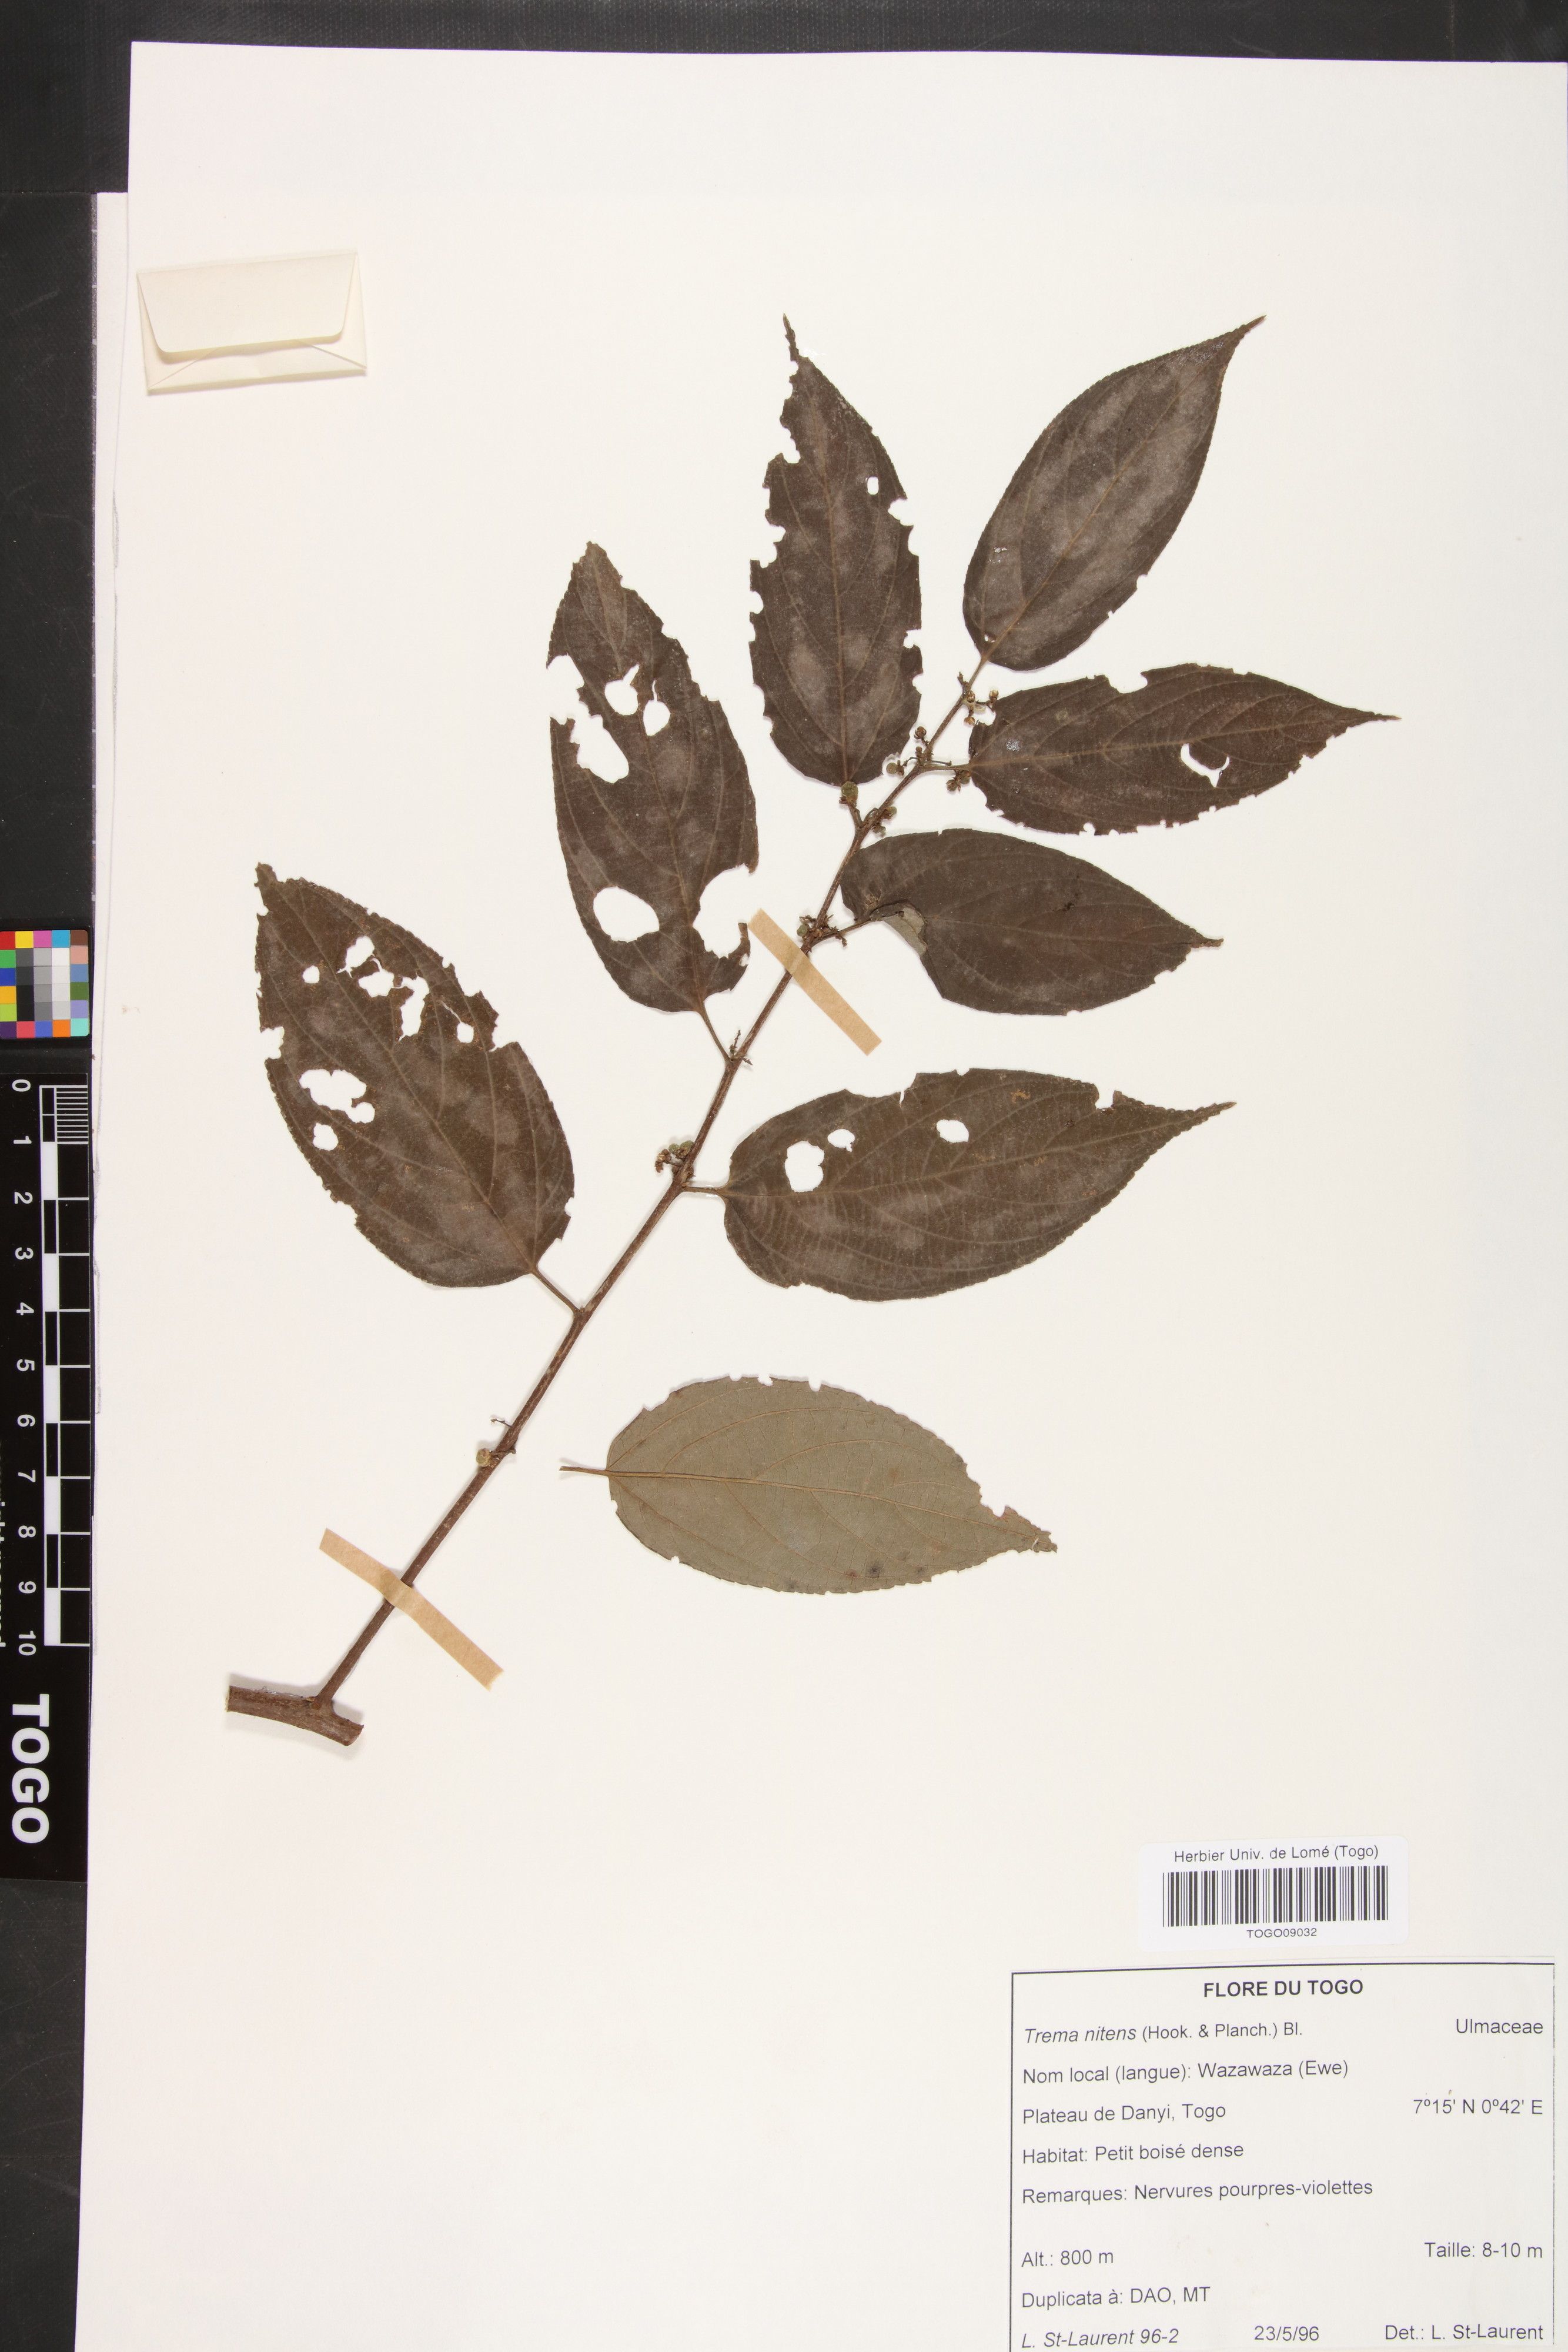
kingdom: Plantae
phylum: Tracheophyta
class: Magnoliopsida
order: Rosales
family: Cannabaceae
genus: Trema
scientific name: Trema orientale
